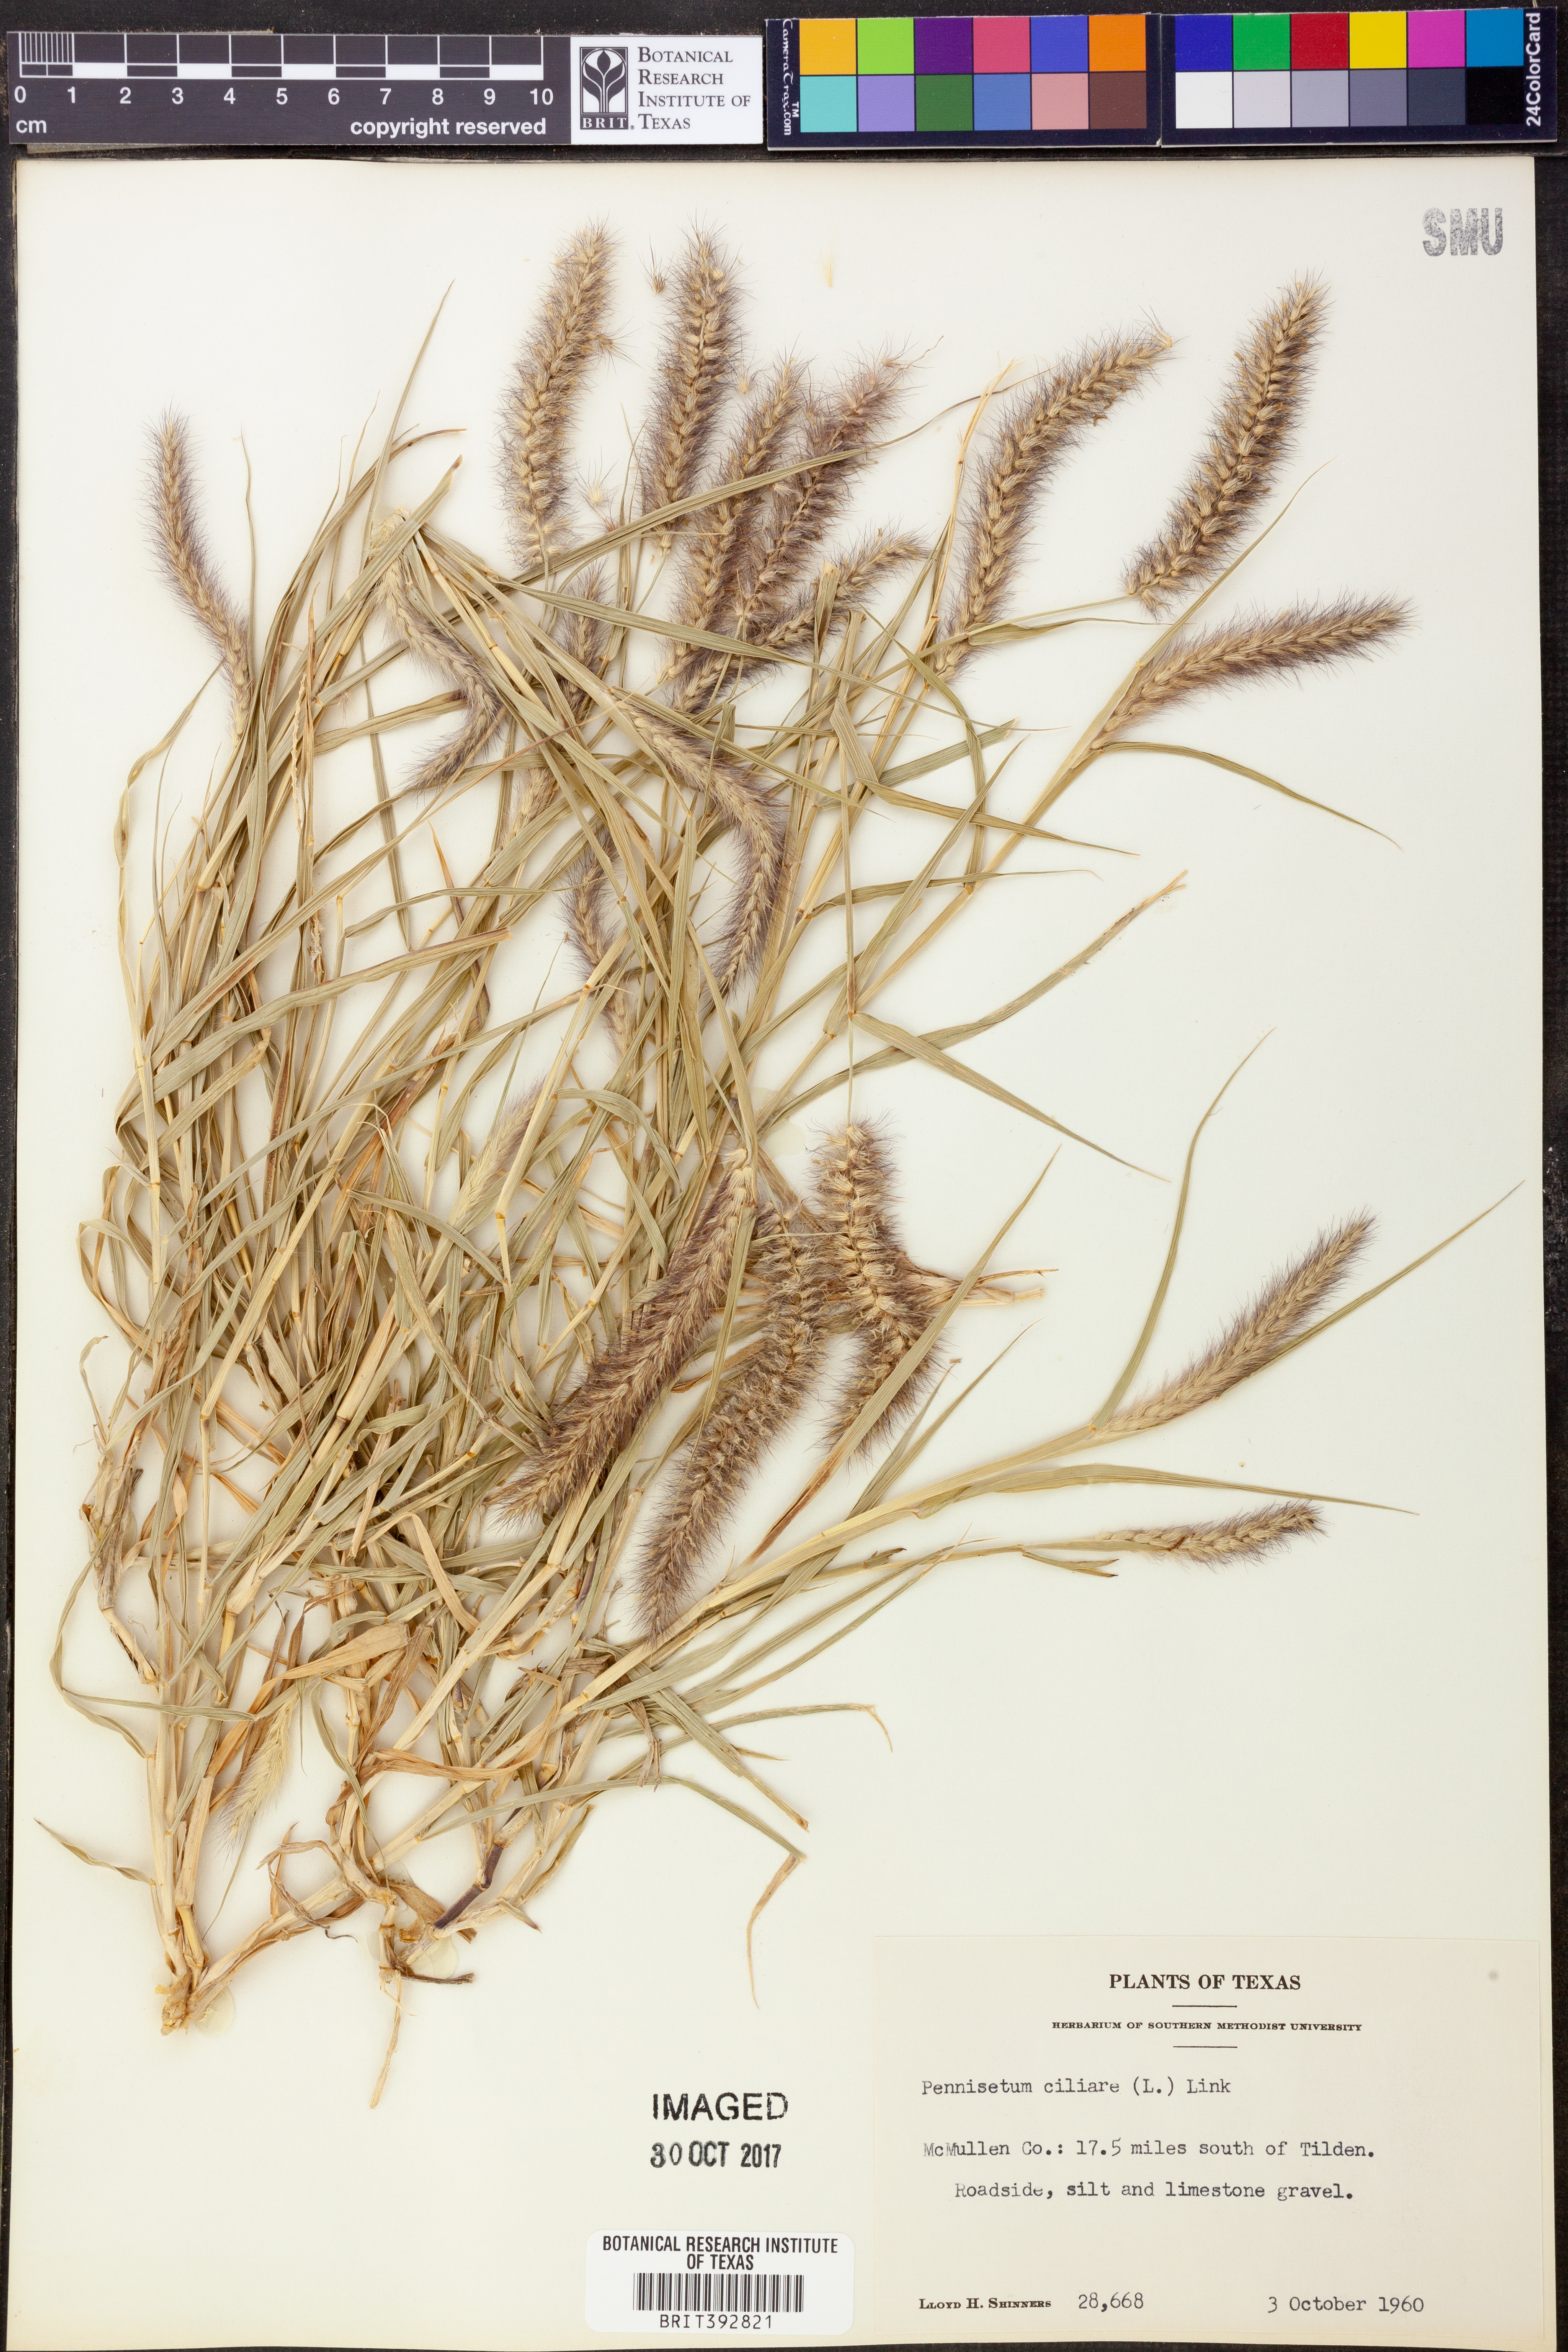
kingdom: Plantae
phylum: Tracheophyta
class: Liliopsida
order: Poales
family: Poaceae
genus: Cenchrus
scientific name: Cenchrus ciliaris
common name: Buffelgrass
